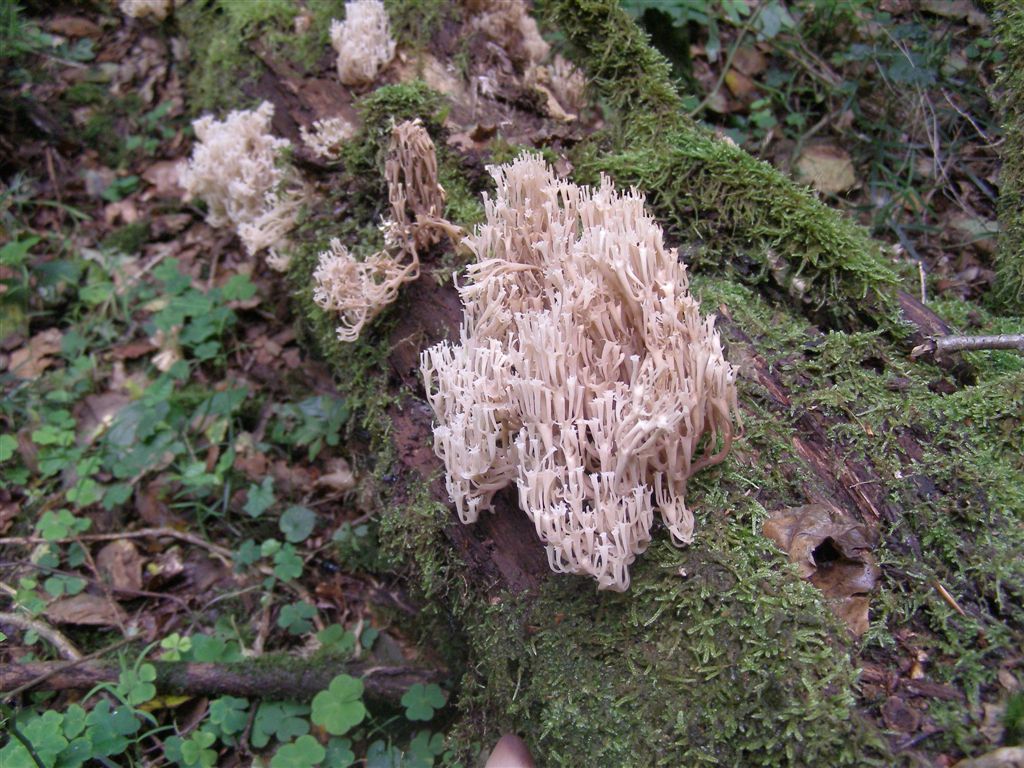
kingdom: Fungi
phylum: Basidiomycota
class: Agaricomycetes
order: Russulales
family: Auriscalpiaceae
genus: Artomyces
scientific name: Artomyces pyxidatus
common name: kandelabersvamp
